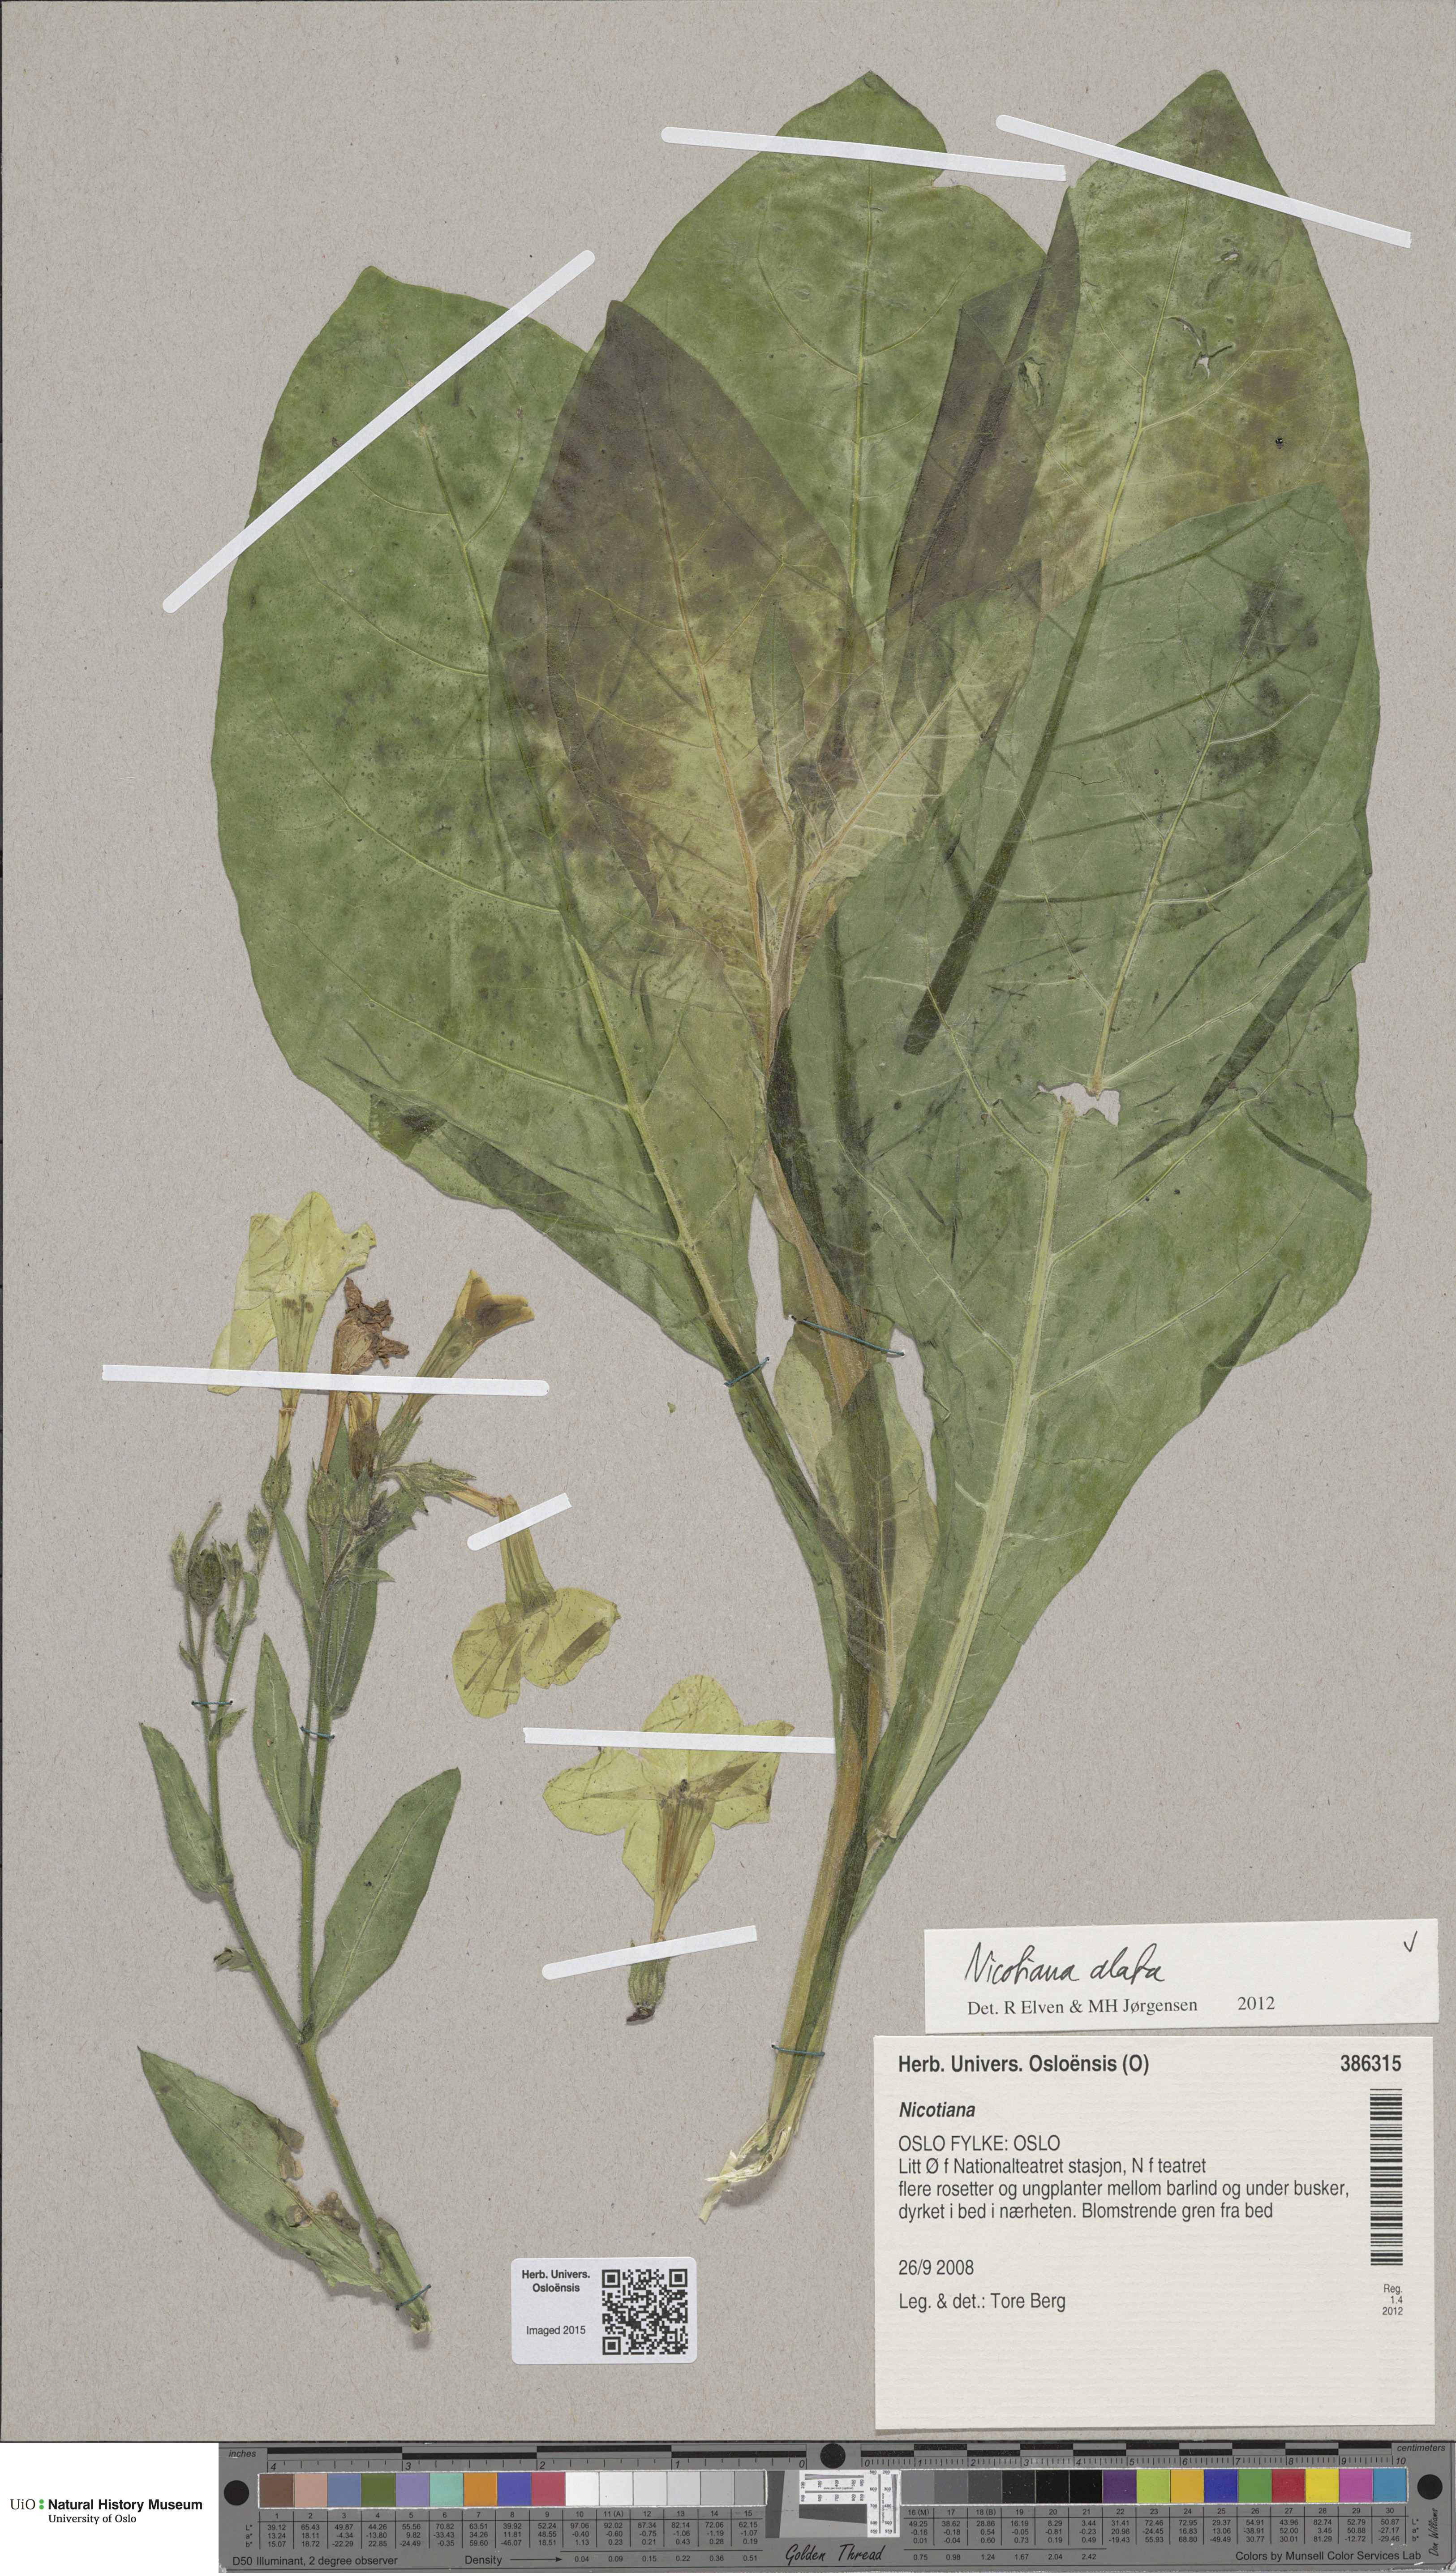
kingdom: Plantae
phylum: Tracheophyta
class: Magnoliopsida
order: Solanales
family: Solanaceae
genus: Nicotiana
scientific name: Nicotiana alata
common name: Jasmine tobacco
